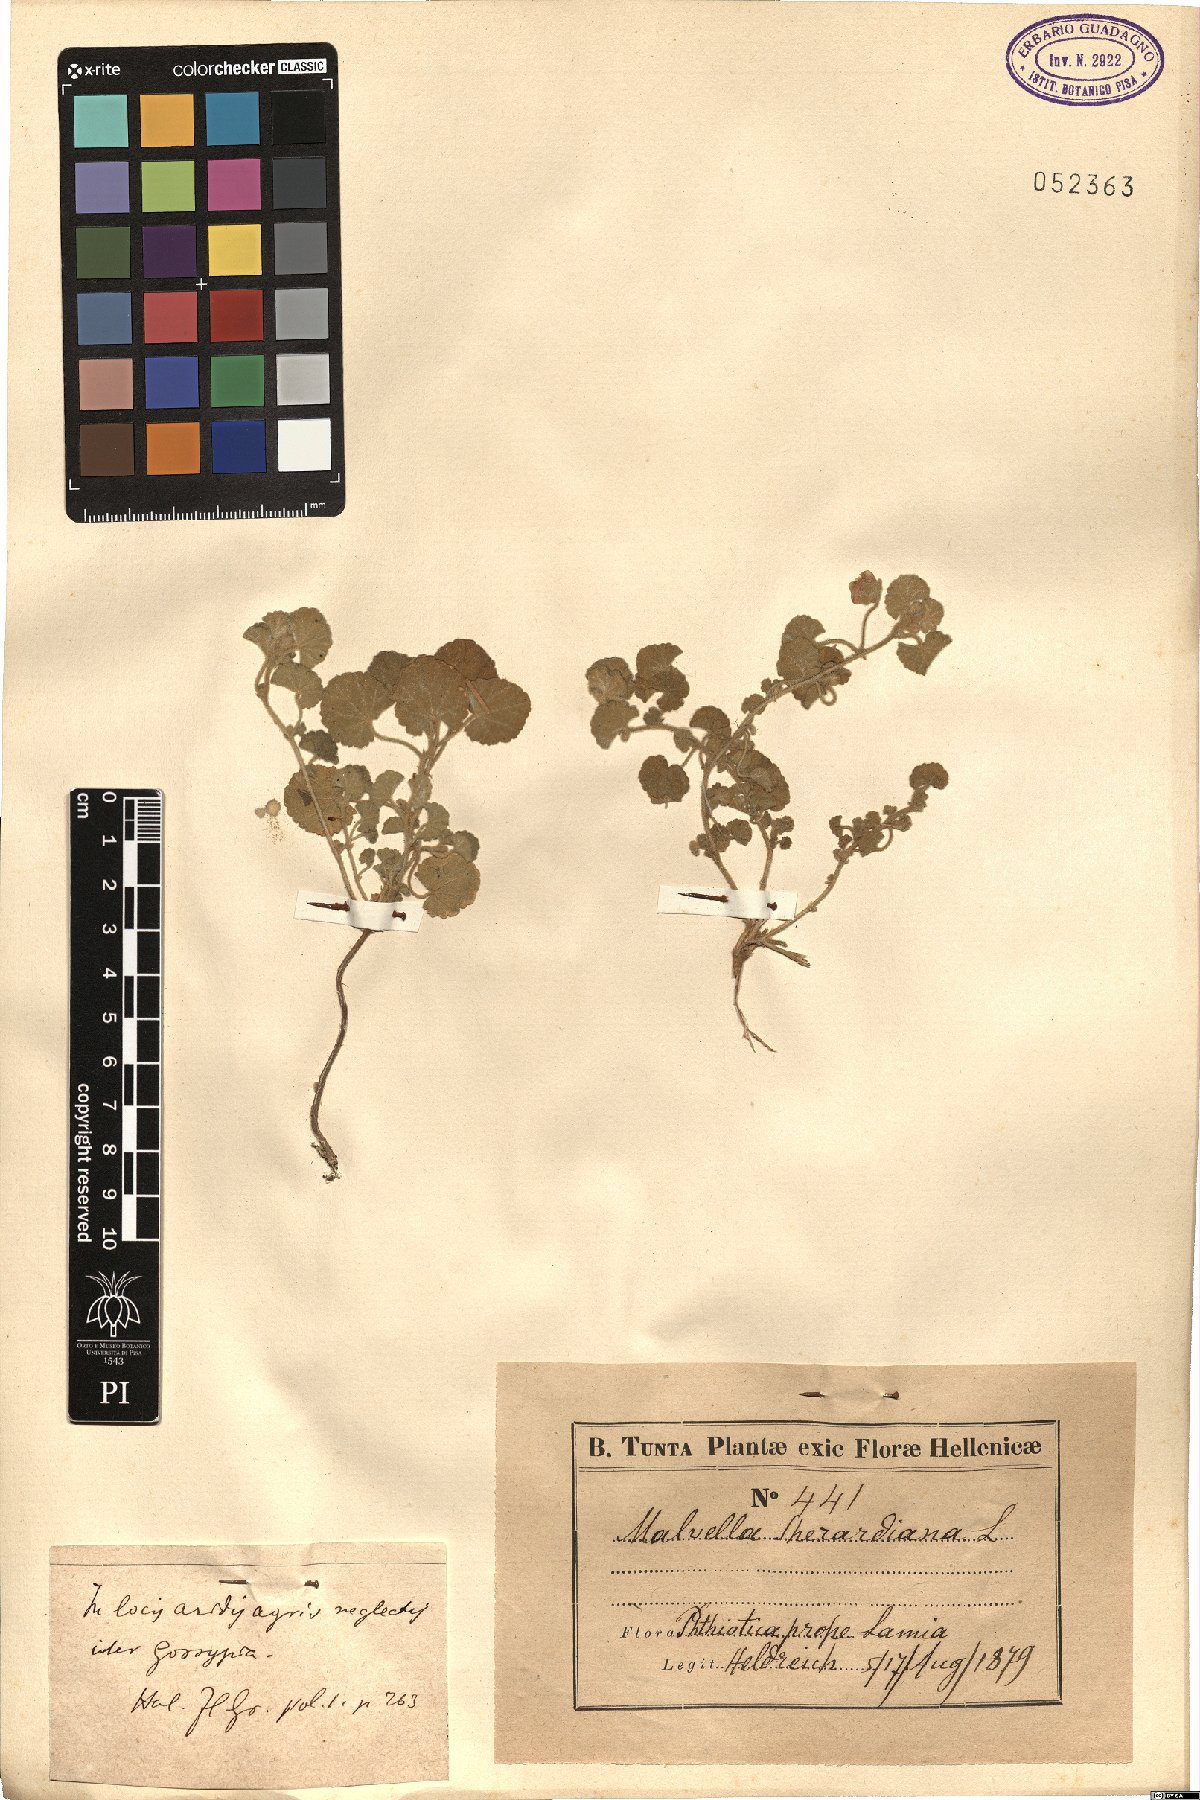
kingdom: Plantae
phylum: Tracheophyta
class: Magnoliopsida
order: Malvales
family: Malvaceae
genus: Malvella
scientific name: Malvella sherardiana
